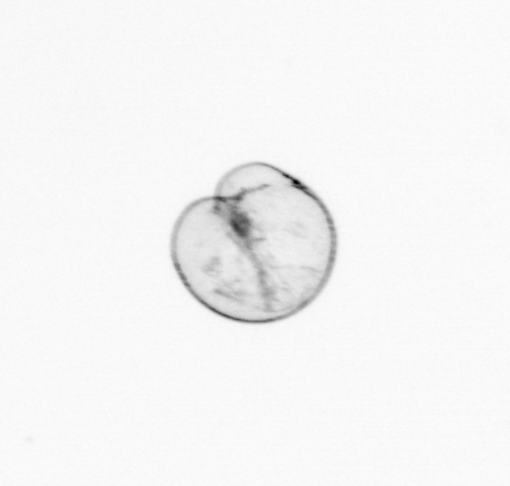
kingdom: Chromista
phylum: Myzozoa
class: Dinophyceae
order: Noctilucales
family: Noctilucaceae
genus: Noctiluca
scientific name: Noctiluca scintillans
